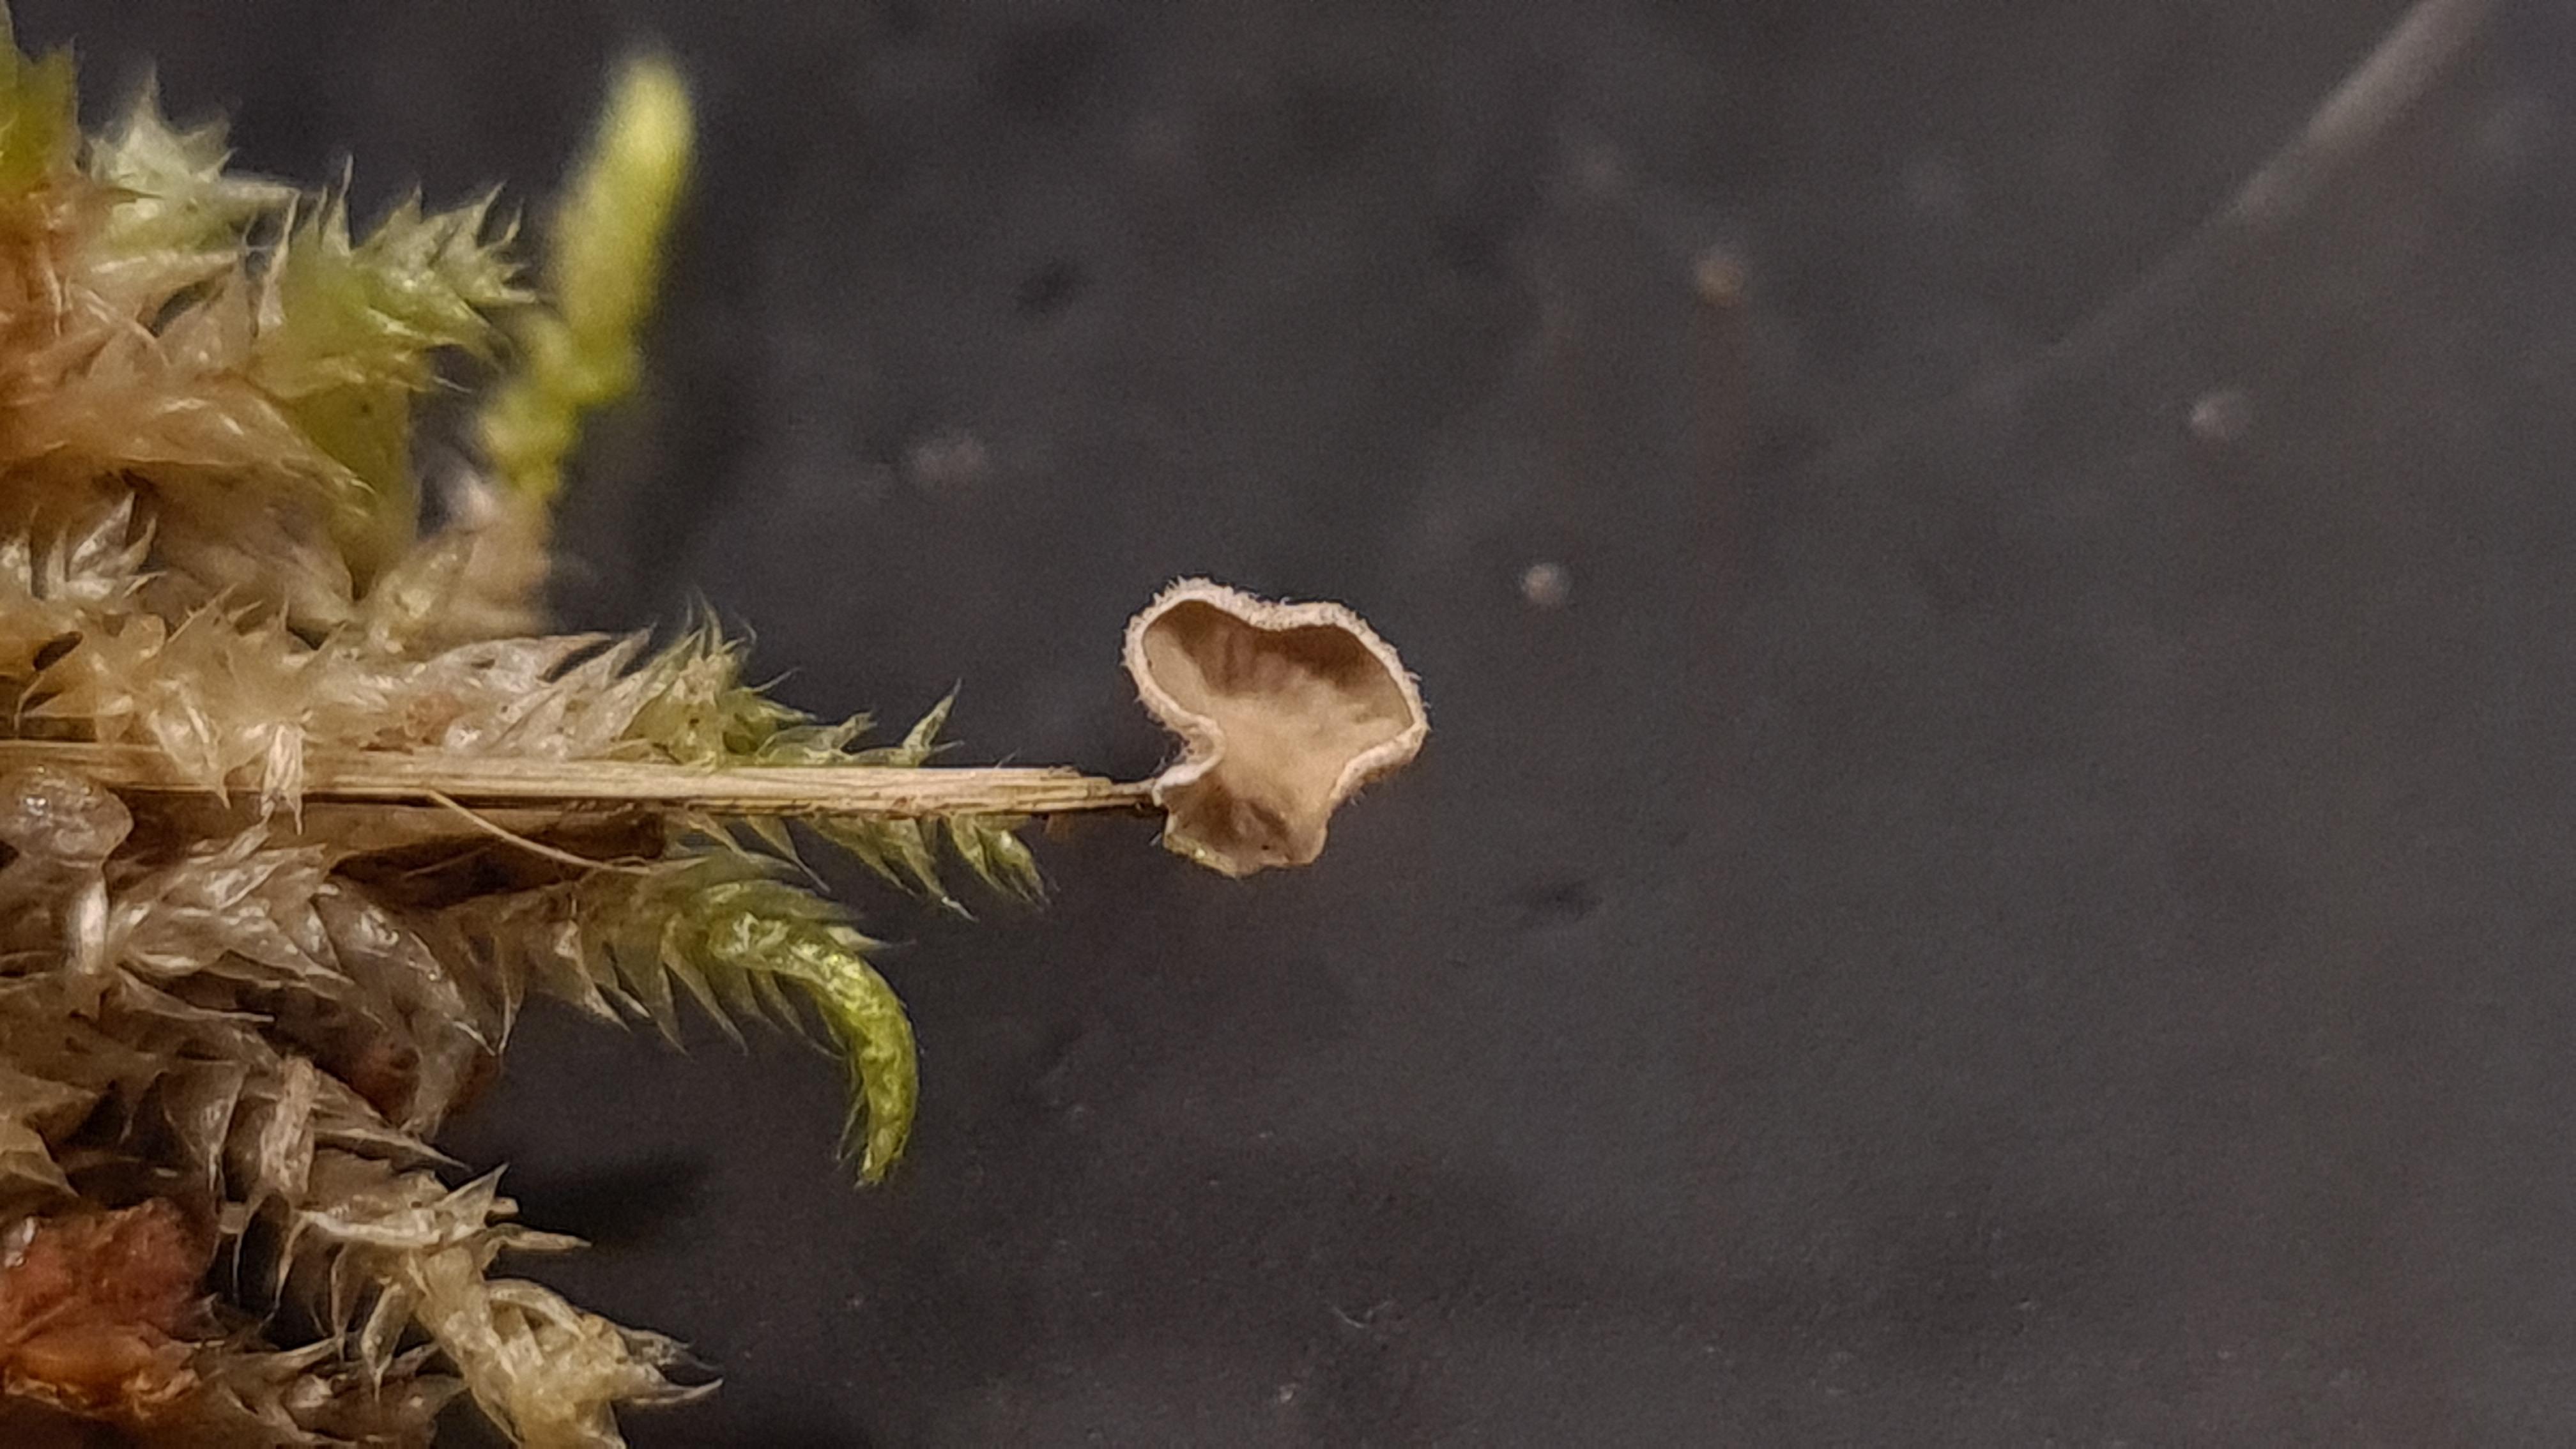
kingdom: Fungi
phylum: Basidiomycota
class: Agaricomycetes
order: Agaricales
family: Hygrophoraceae
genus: Arrhenia
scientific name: Arrhenia retiruga
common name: lille fontænehat
